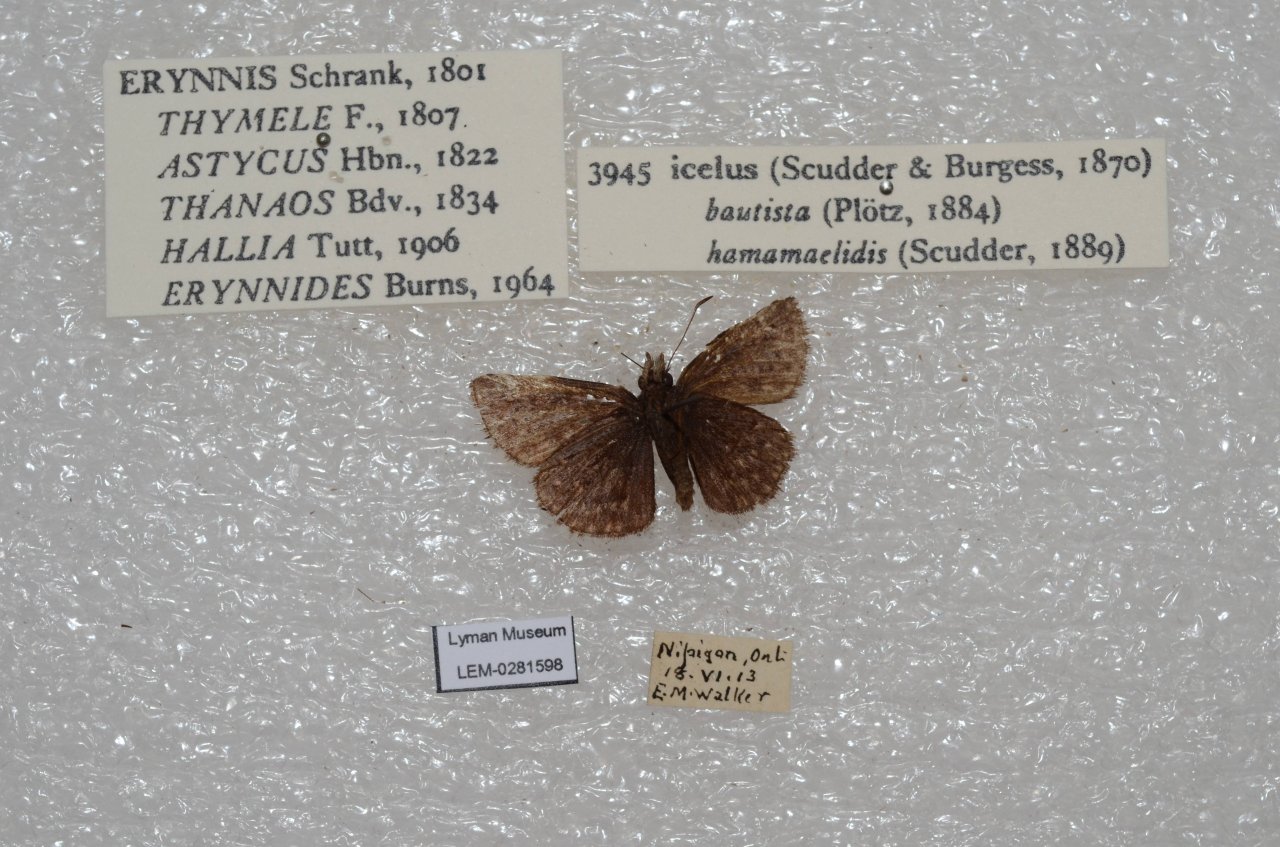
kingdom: Animalia
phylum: Arthropoda
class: Insecta
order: Lepidoptera
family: Hesperiidae
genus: Erynnis
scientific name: Erynnis icelus
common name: Dreamy Duskywing
